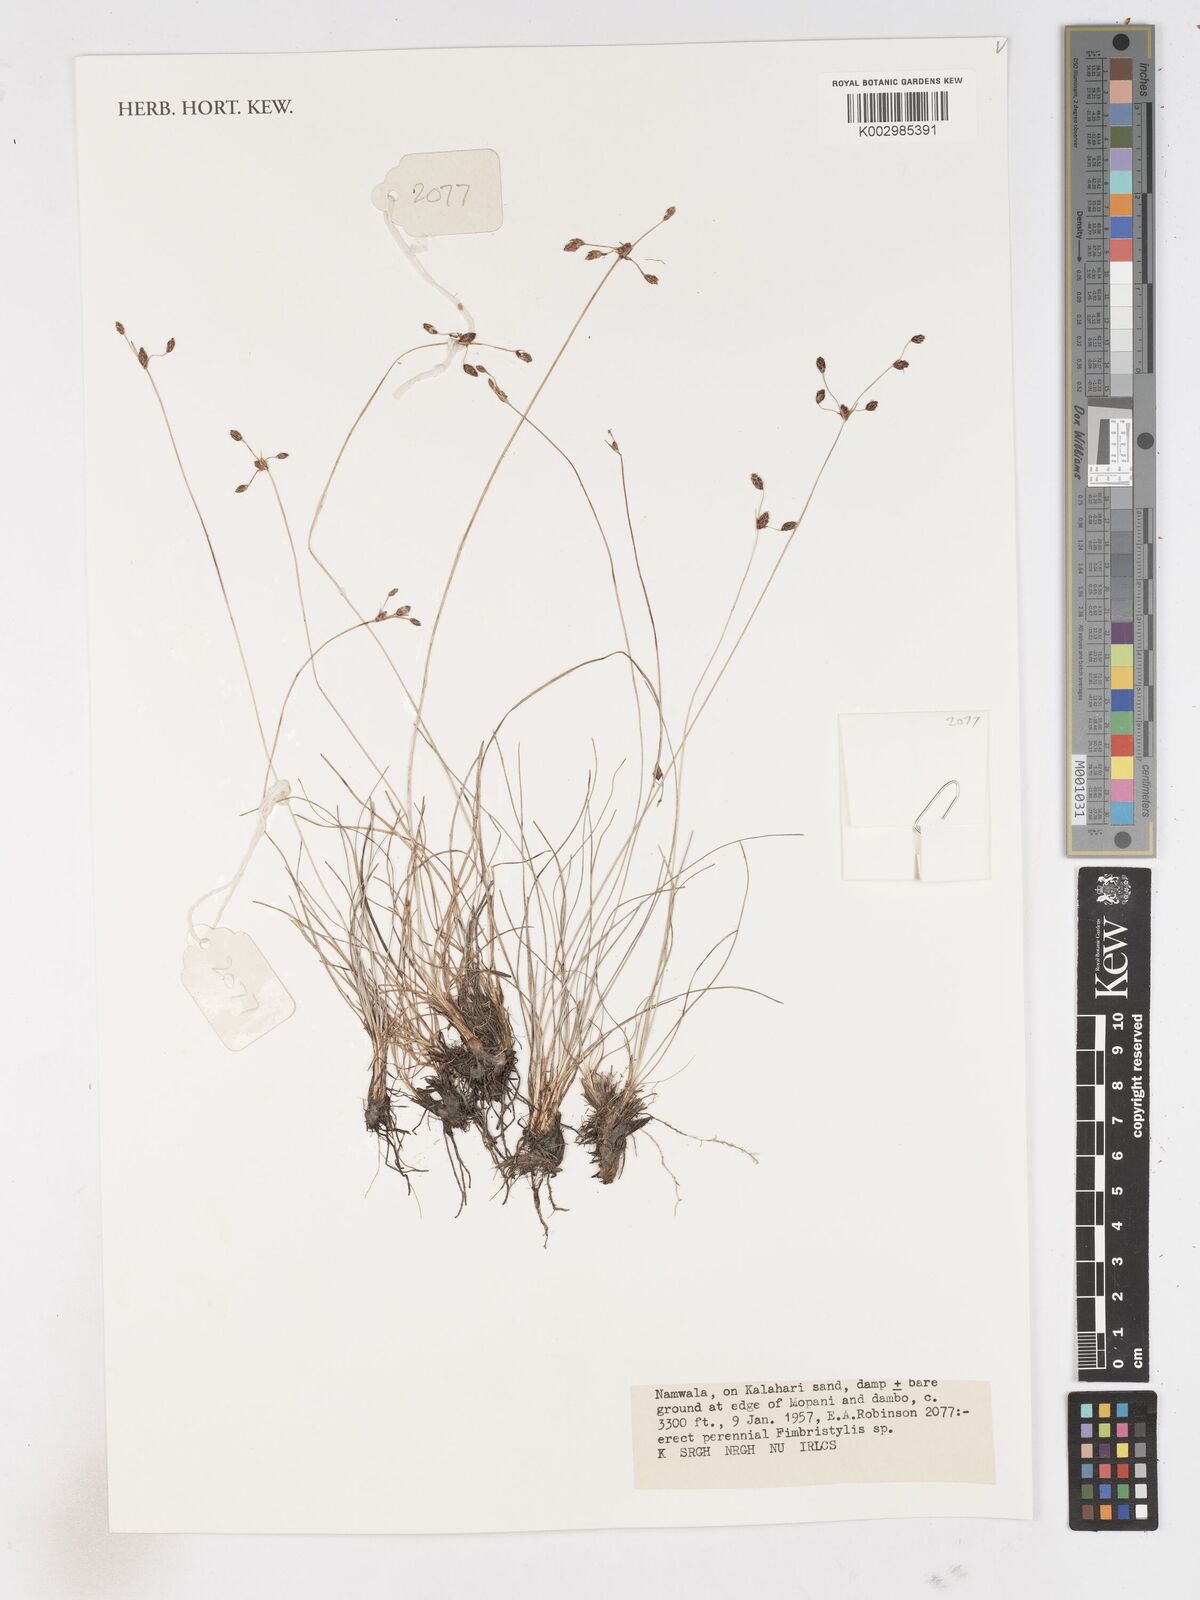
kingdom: Plantae
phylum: Tracheophyta
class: Liliopsida
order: Poales
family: Cyperaceae
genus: Fimbristylis
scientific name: Fimbristylis
